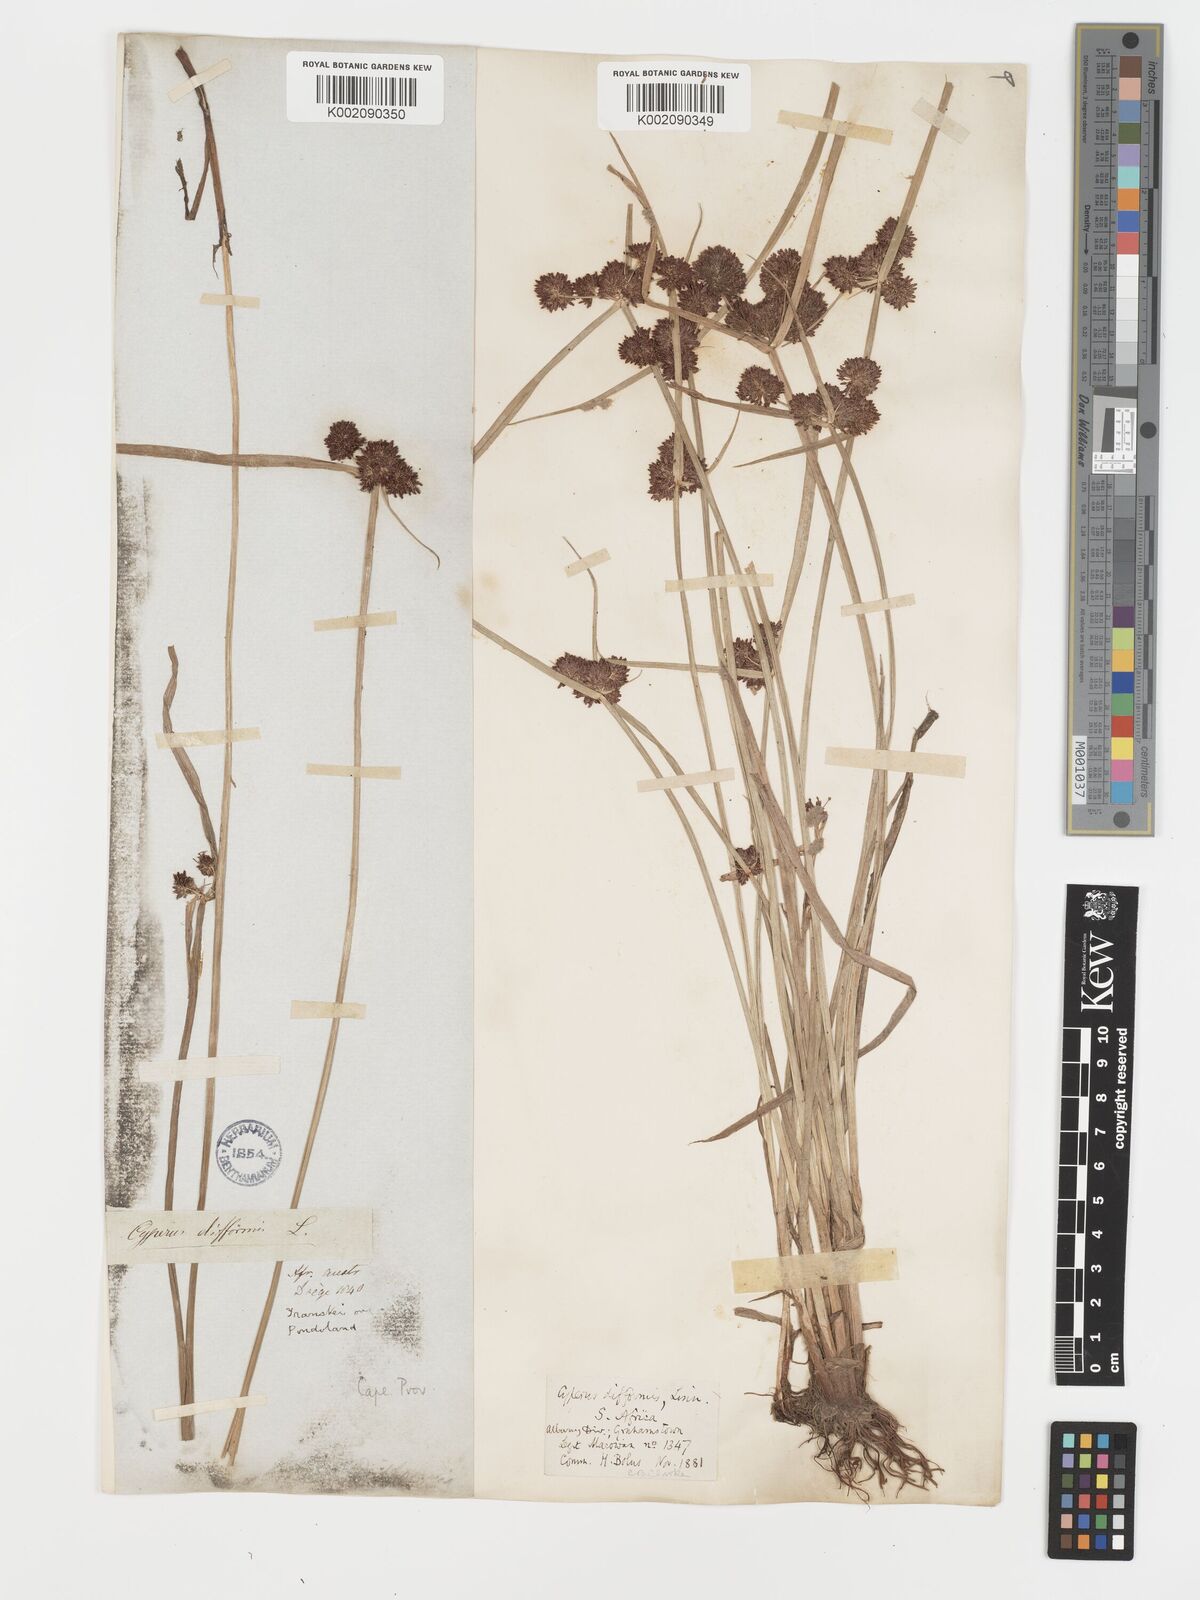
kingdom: Plantae
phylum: Tracheophyta
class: Liliopsida
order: Poales
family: Cyperaceae
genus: Cyperus
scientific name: Cyperus difformis
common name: Variable flatsedge
